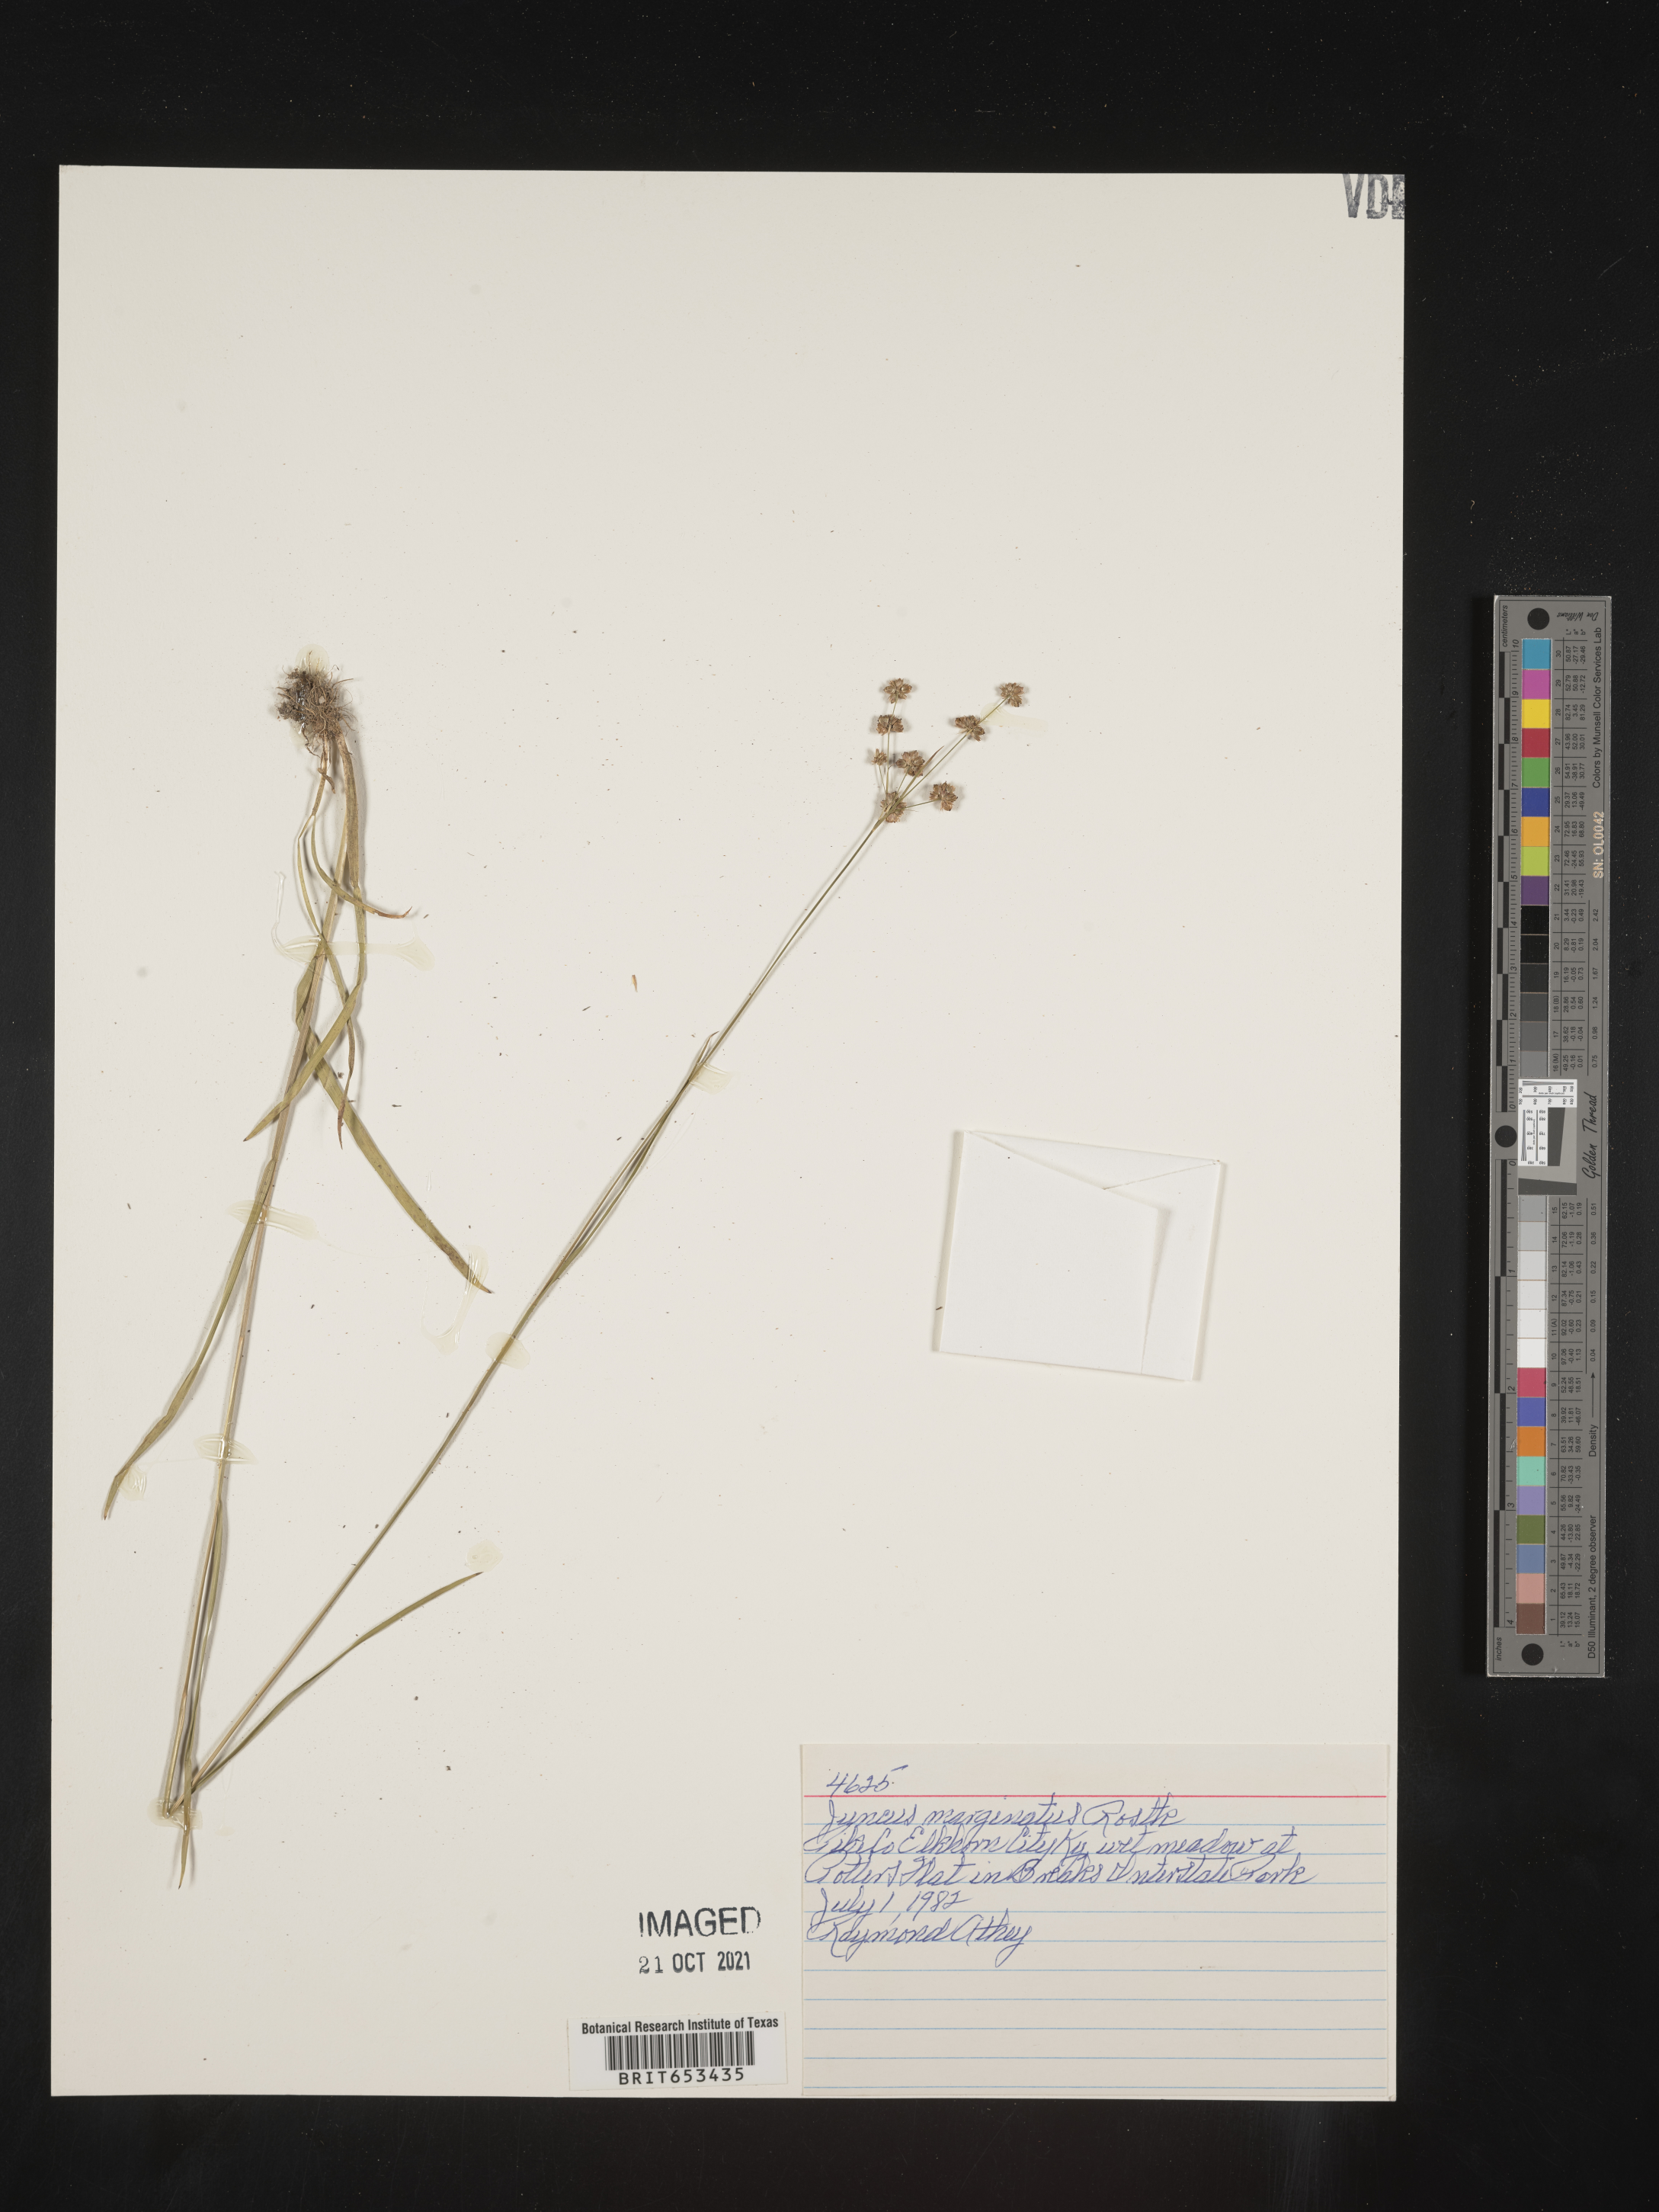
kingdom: Plantae
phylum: Tracheophyta
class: Liliopsida
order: Poales
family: Juncaceae
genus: Juncus
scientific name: Juncus marginatus
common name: Grass-leaf rush
